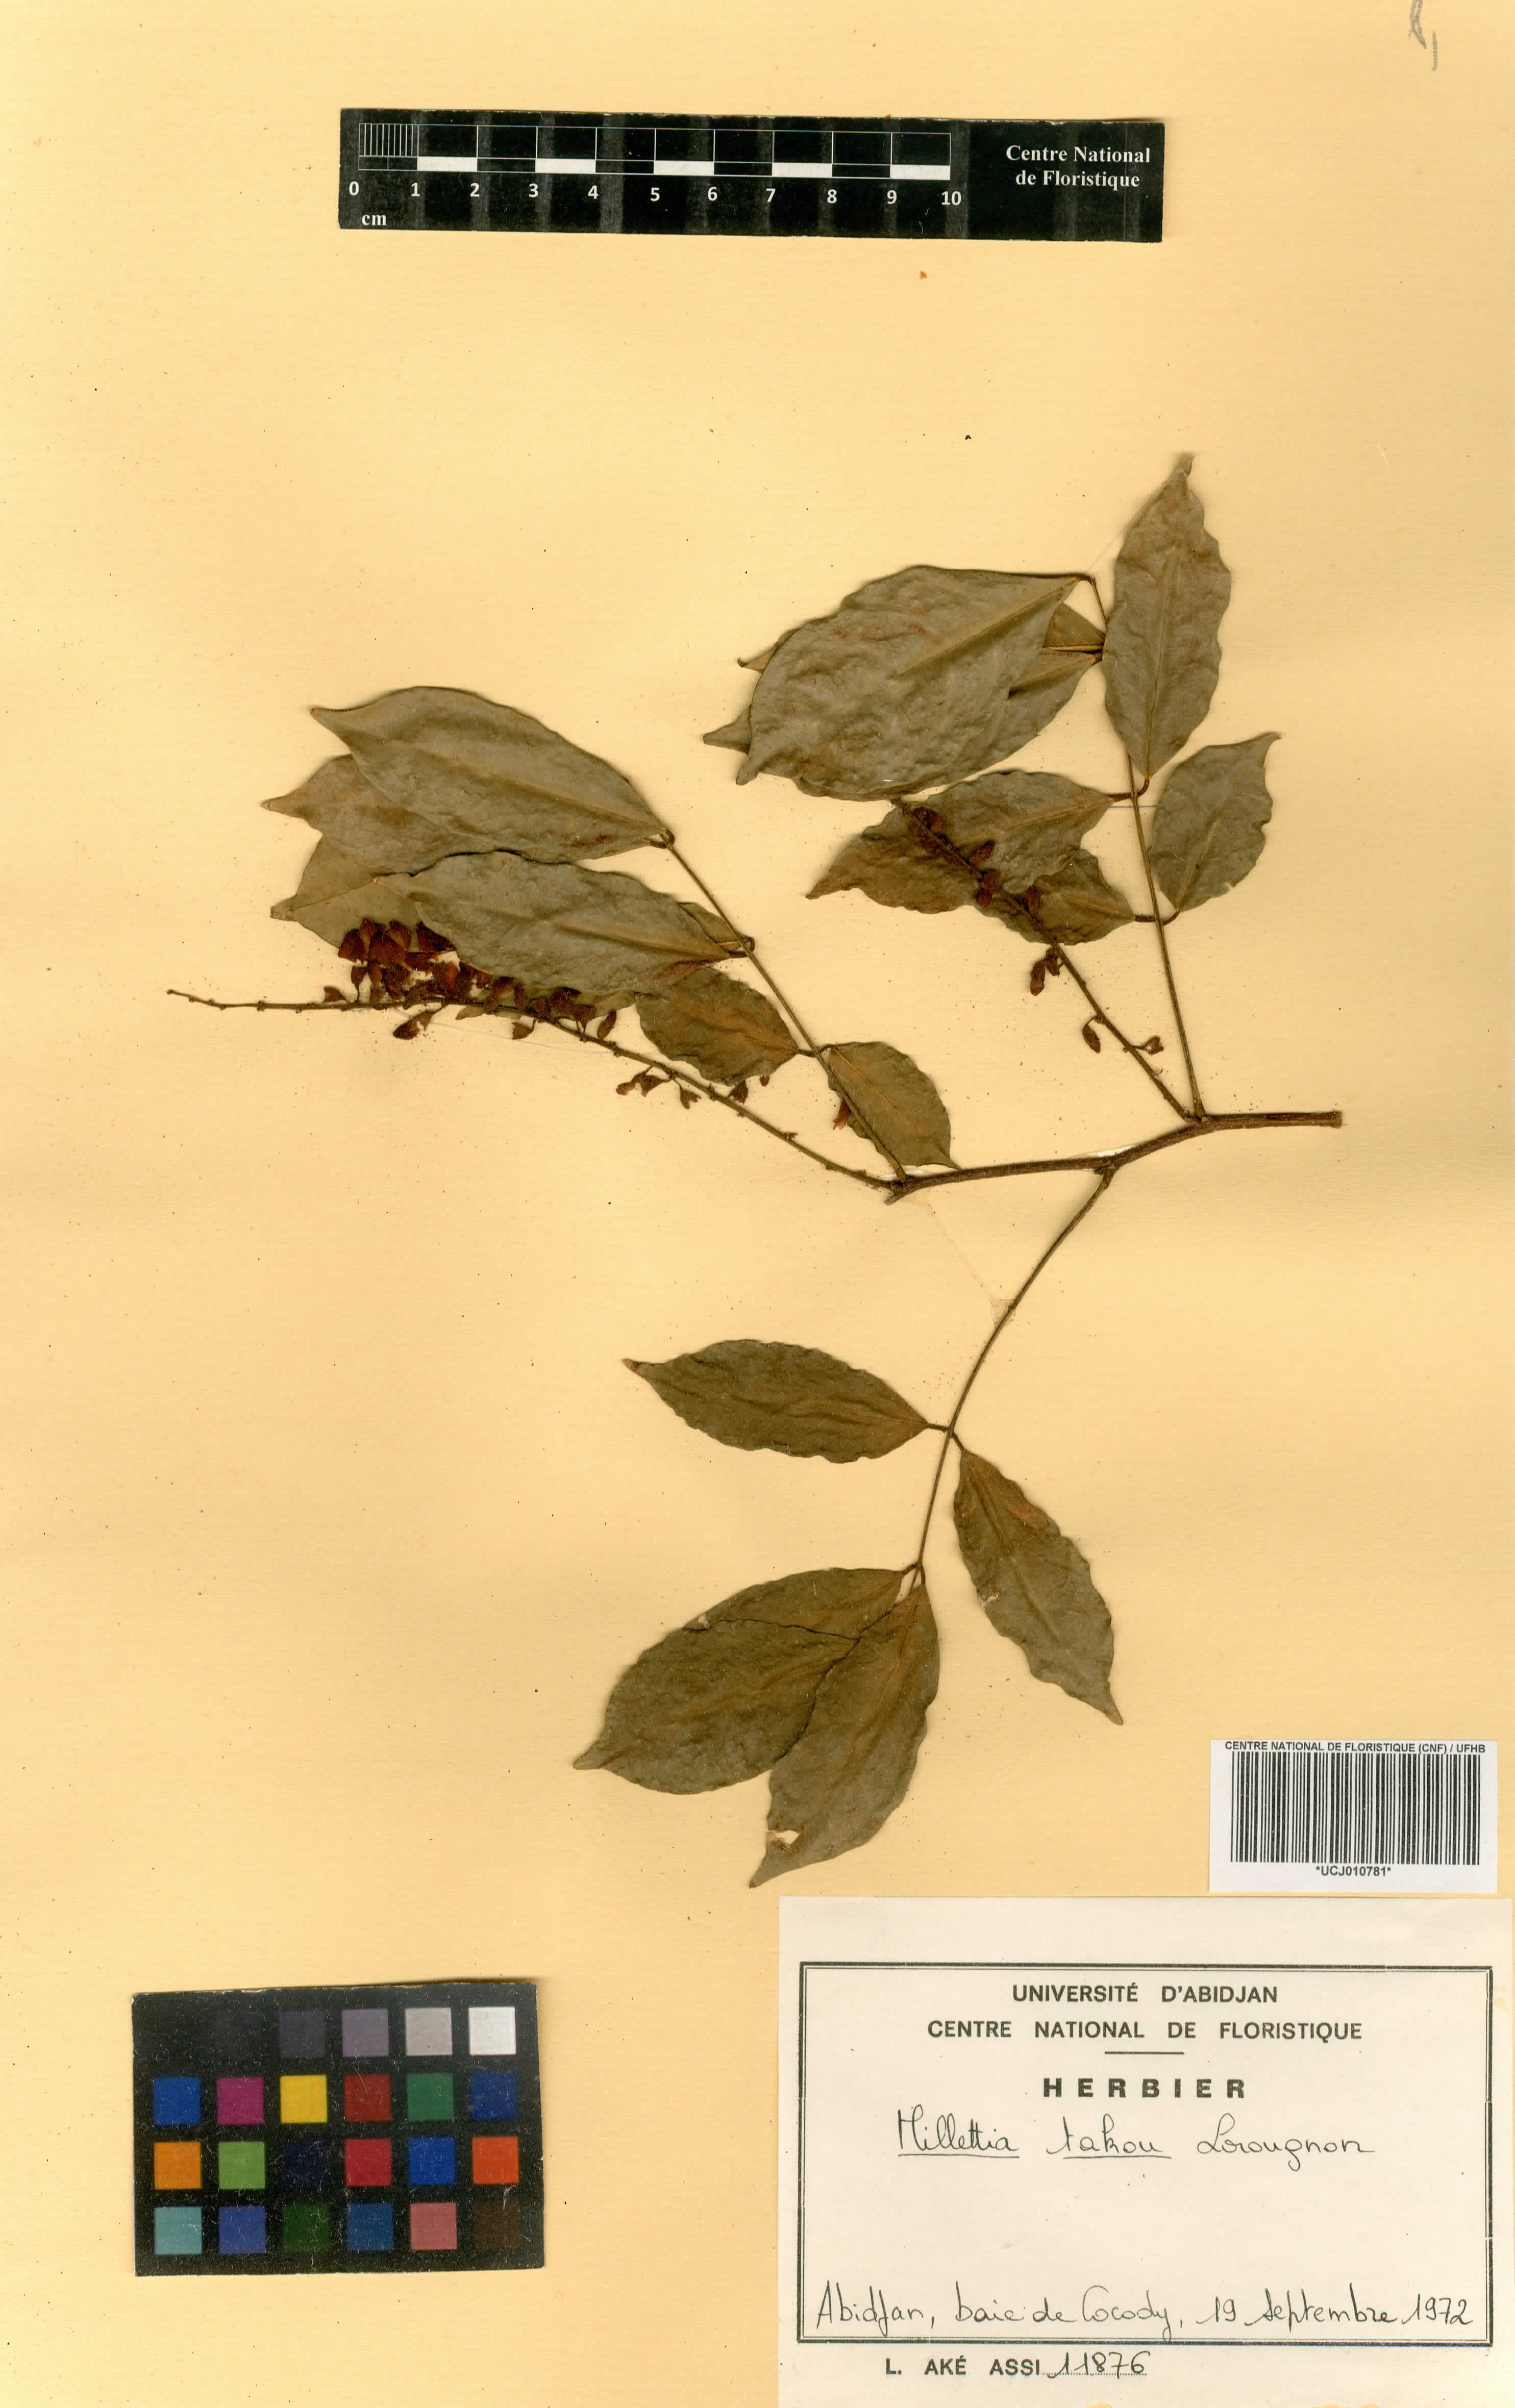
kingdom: Plantae
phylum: Tracheophyta
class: Magnoliopsida
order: Fabales
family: Fabaceae
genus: Millettia
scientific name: Millettia takou
